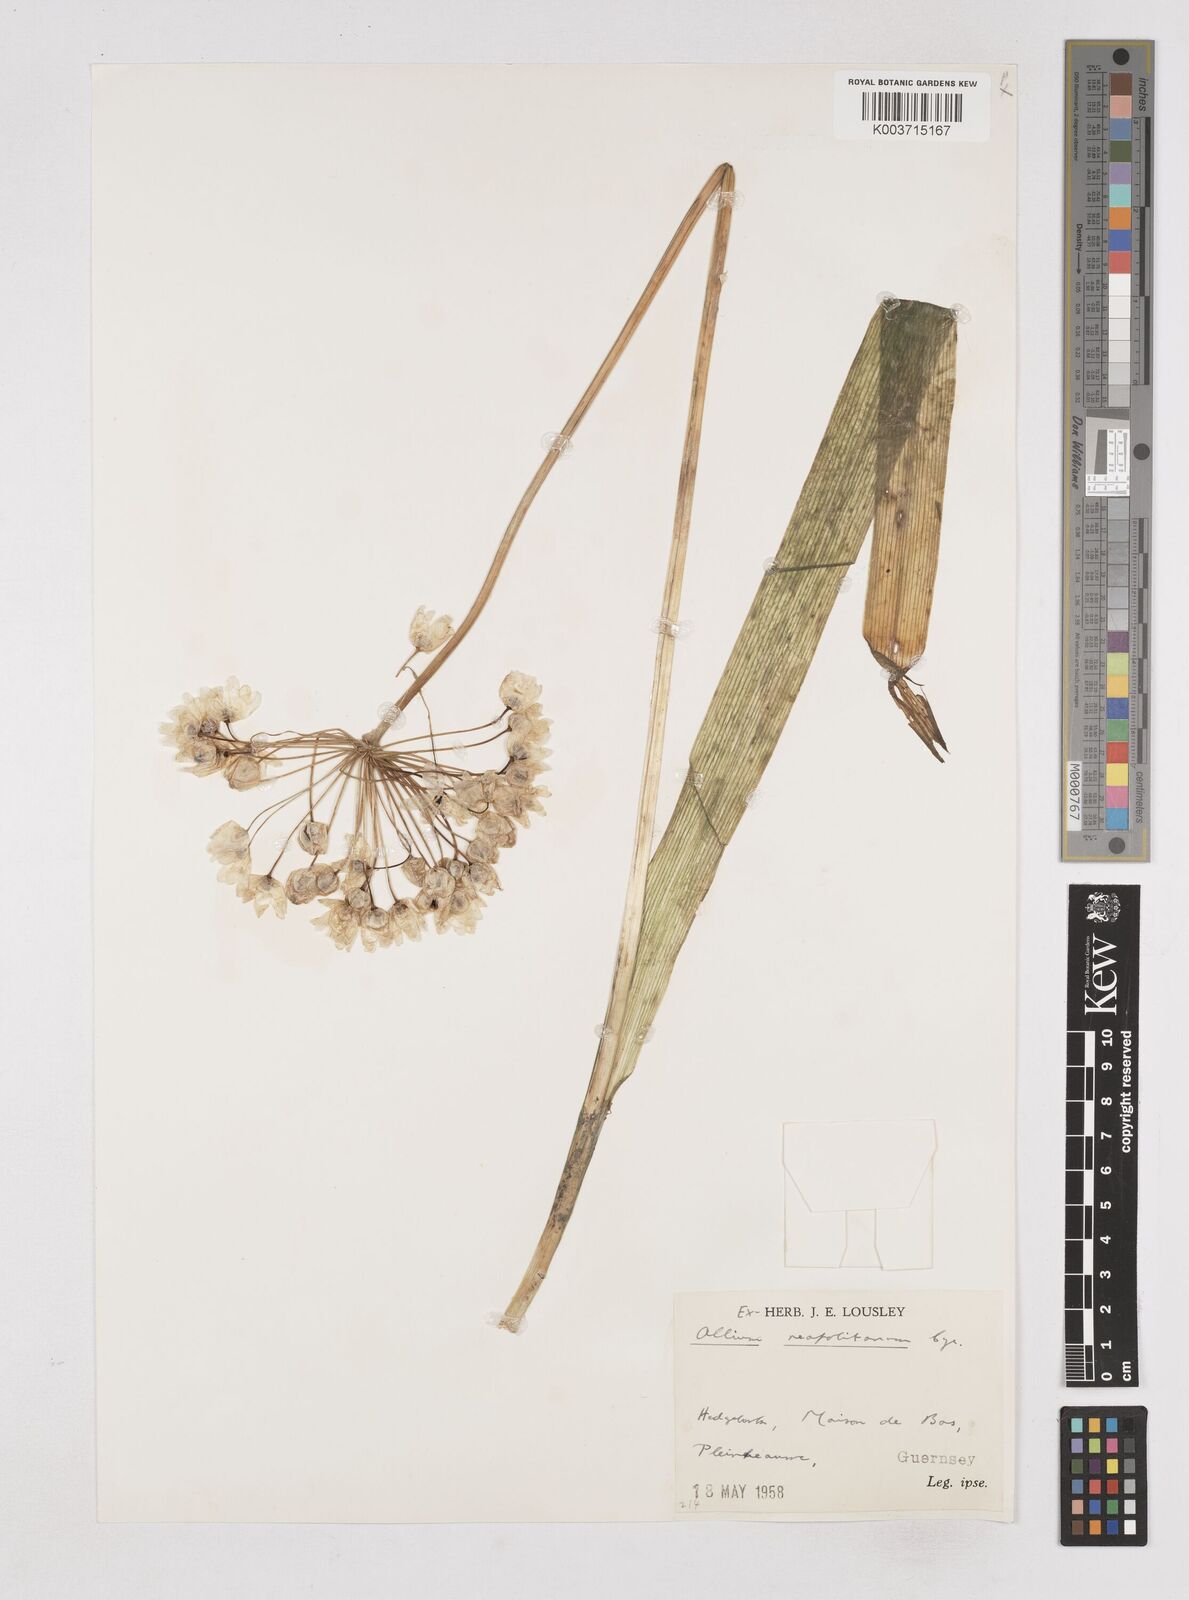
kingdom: Plantae
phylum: Tracheophyta
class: Liliopsida
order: Asparagales
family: Amaryllidaceae
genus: Allium
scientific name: Allium neapolitanum
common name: Neapolitan garlic
